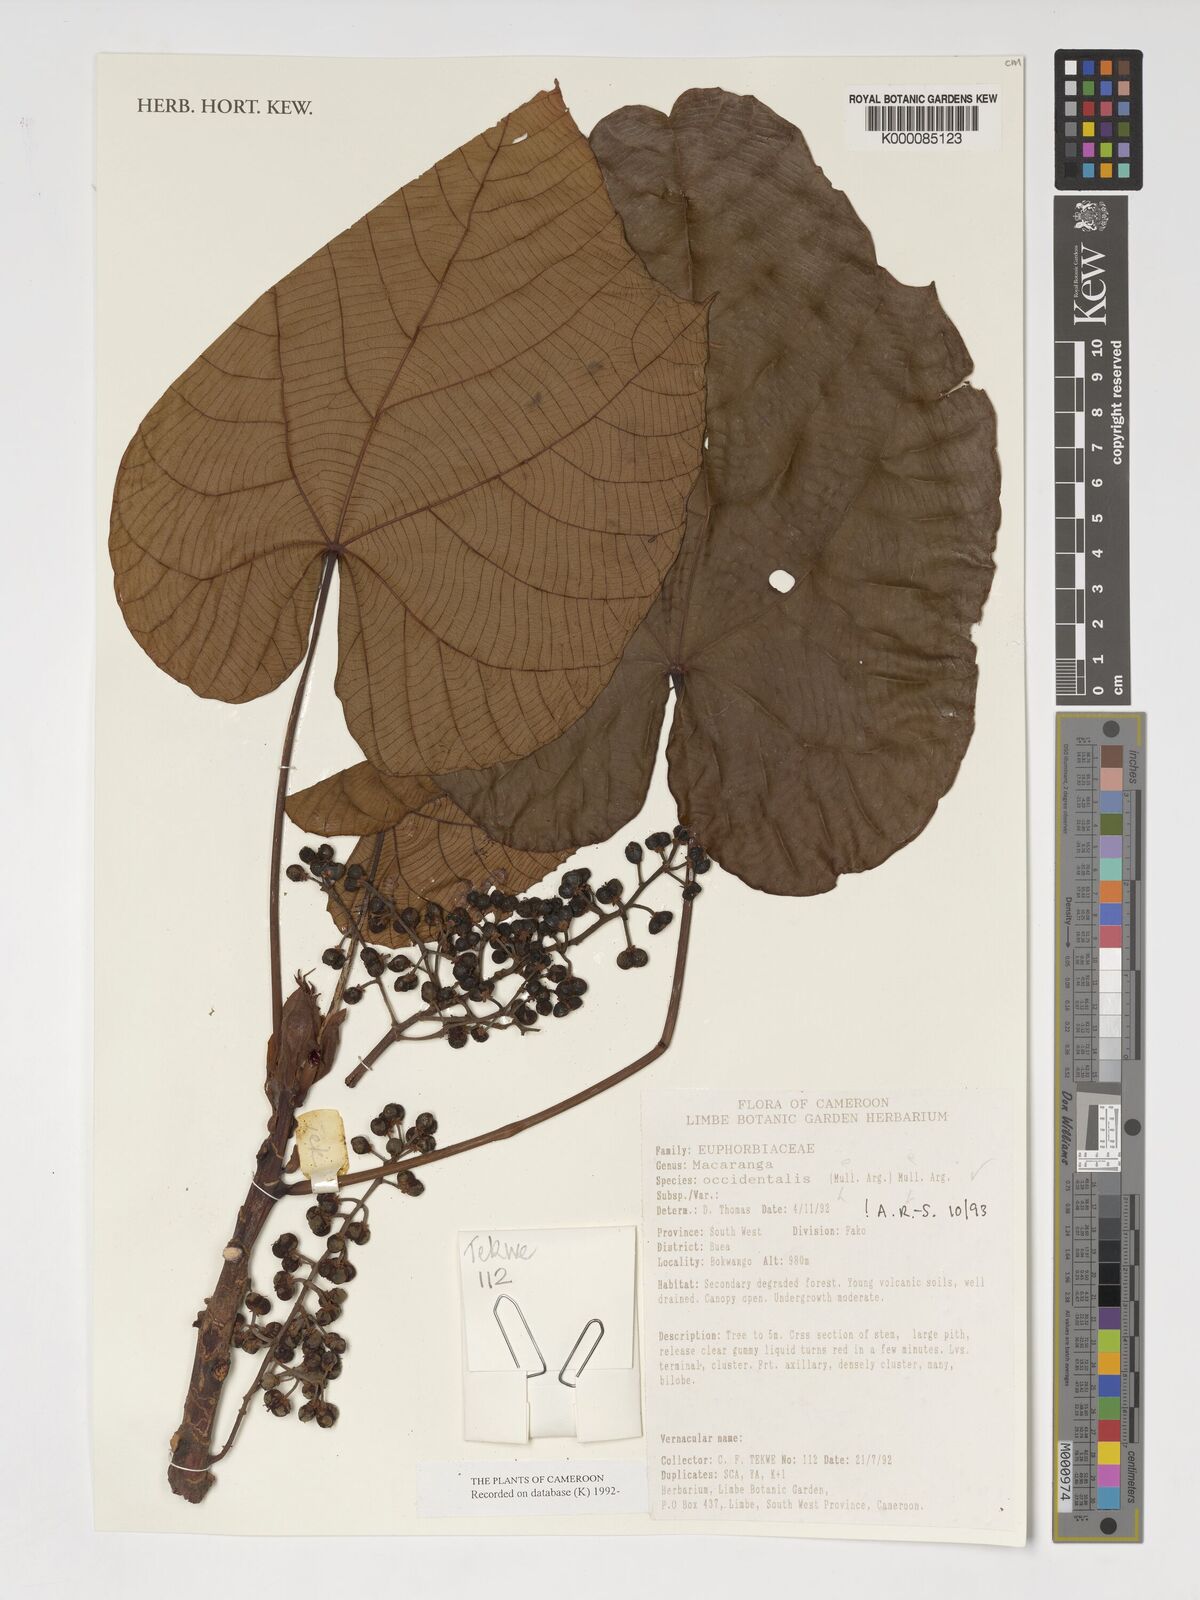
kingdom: Plantae
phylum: Tracheophyta
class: Magnoliopsida
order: Malpighiales
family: Euphorbiaceae
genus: Macaranga
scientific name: Macaranga
